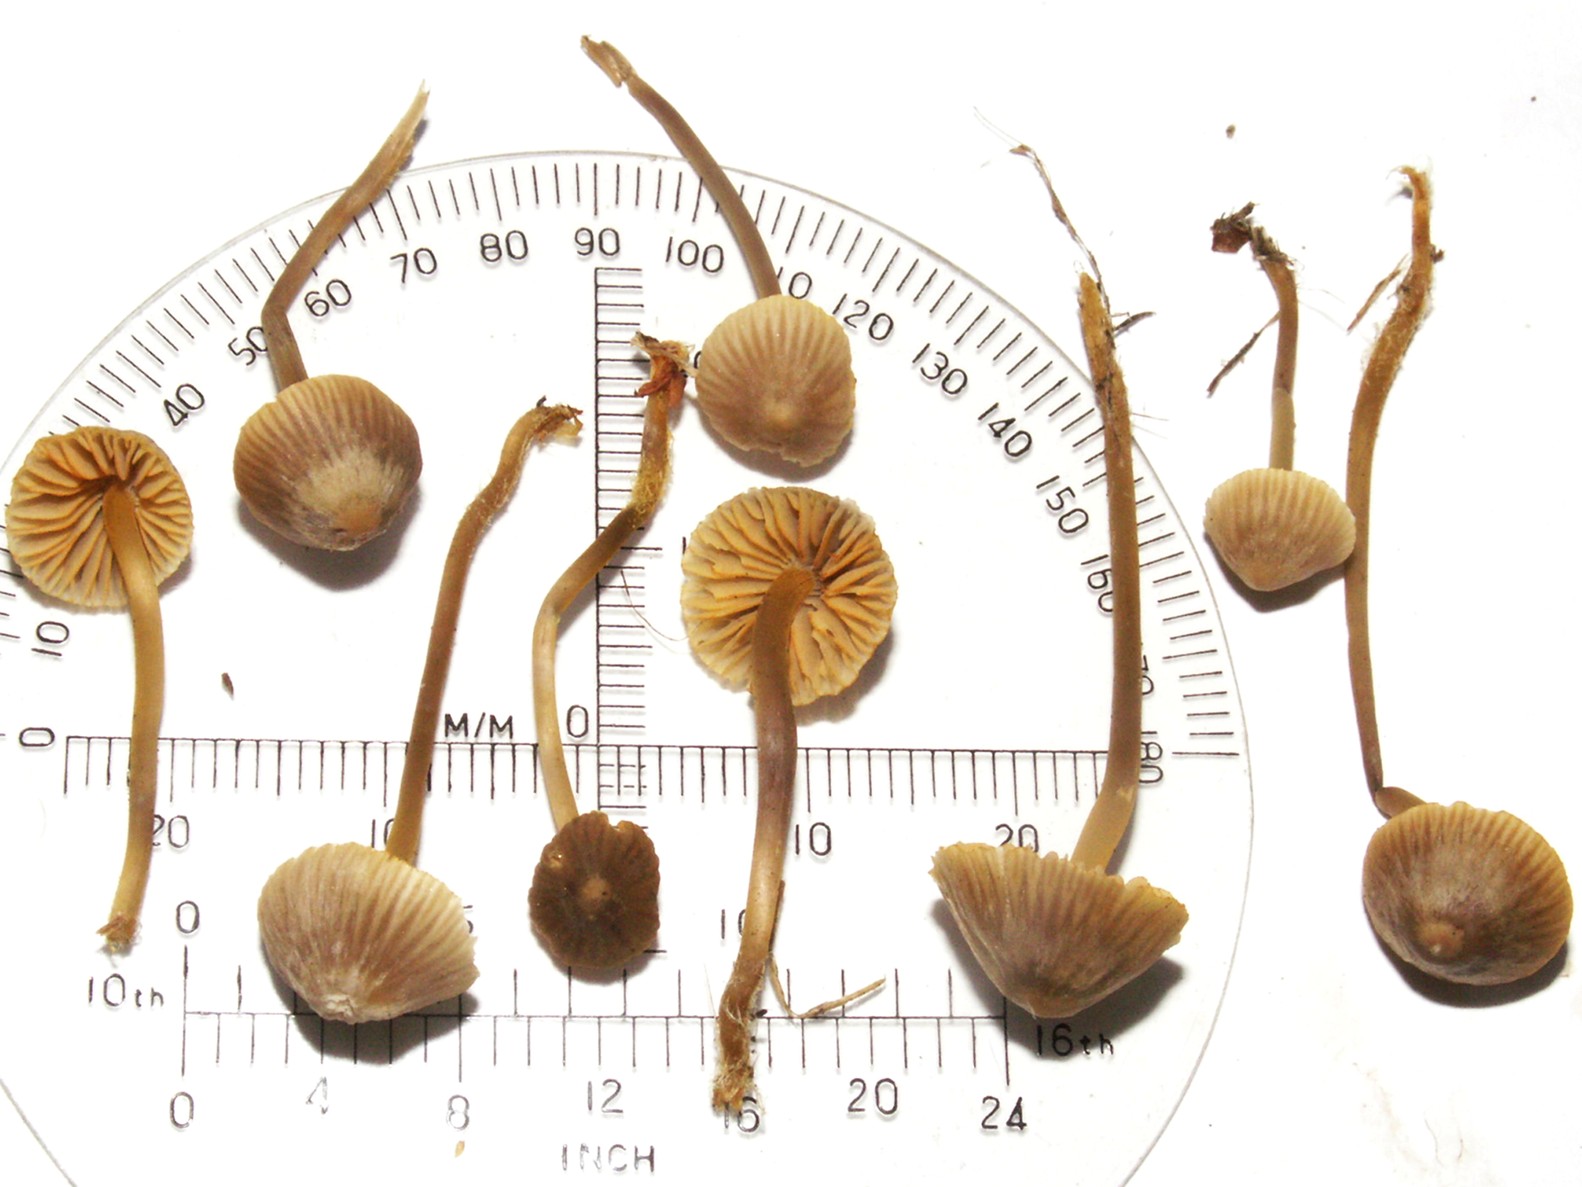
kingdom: Fungi
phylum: Basidiomycota
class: Agaricomycetes
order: Agaricales
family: Mycenaceae
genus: Mycena
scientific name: Mycena aurantiomarginata
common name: orangeægget huesvamp
